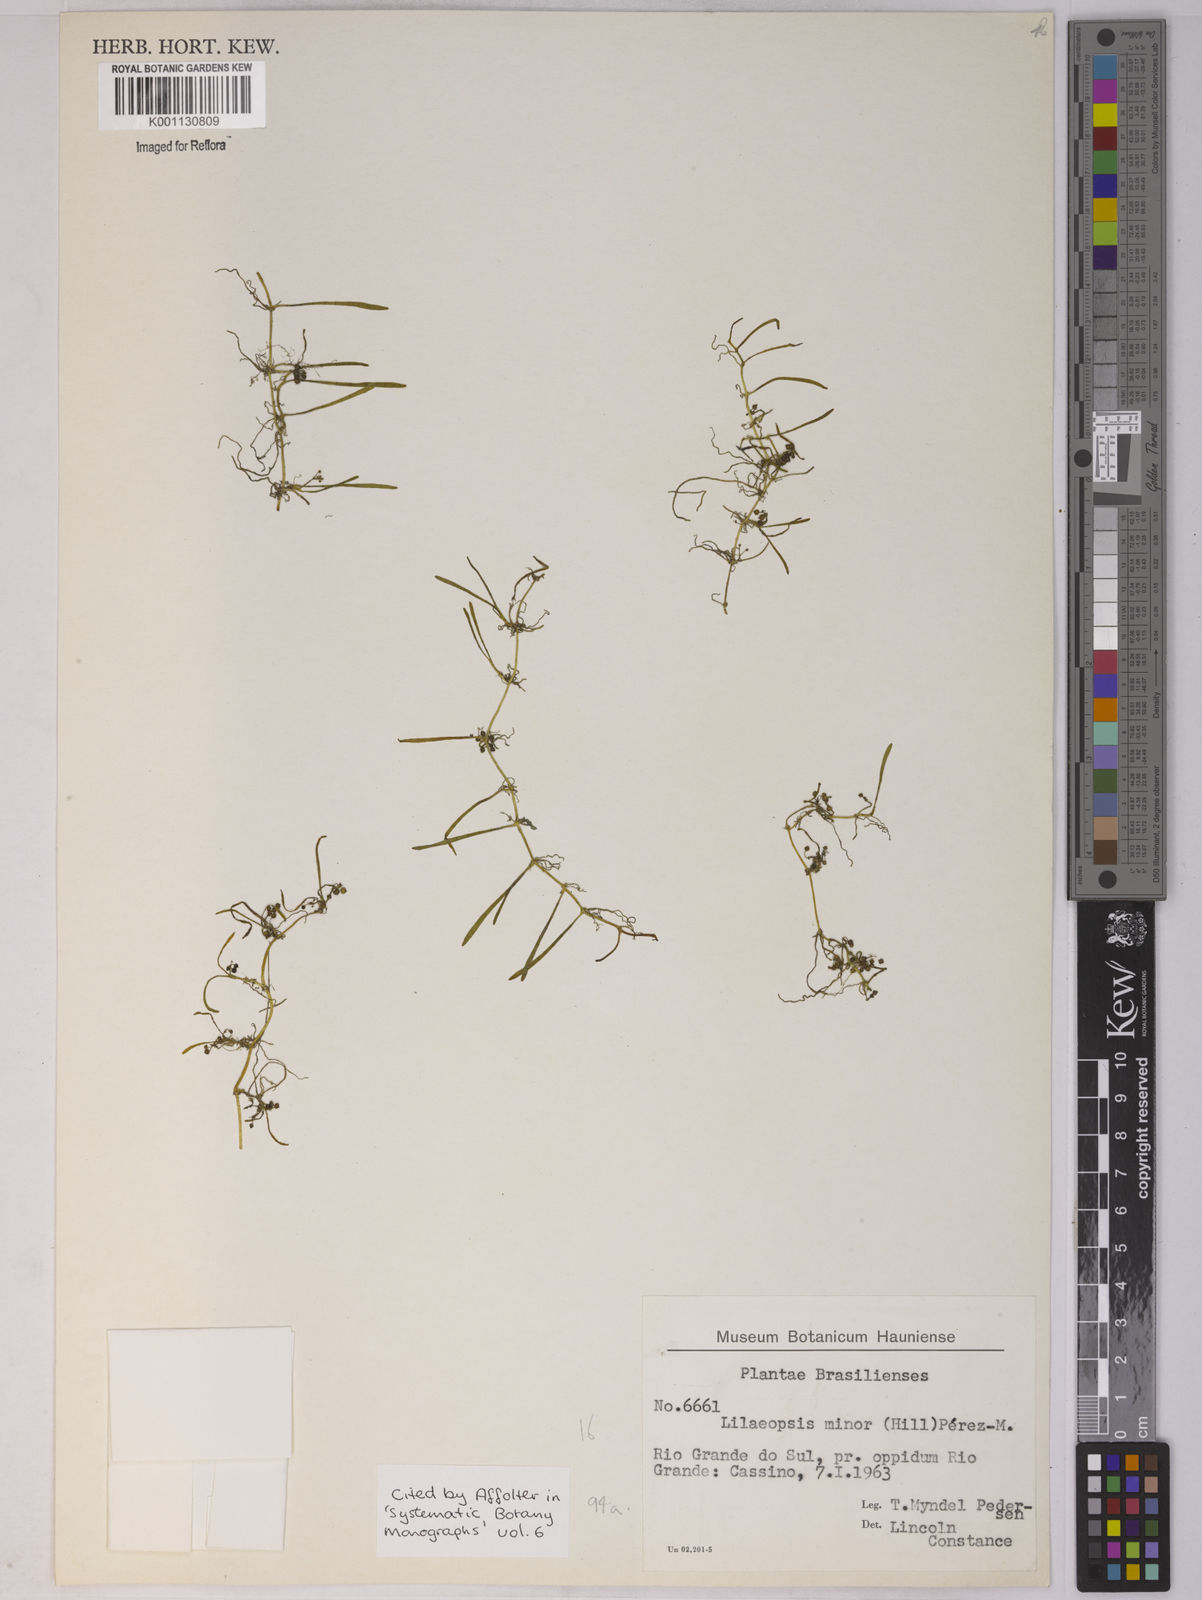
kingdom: Plantae
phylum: Tracheophyta
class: Magnoliopsida
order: Apiales
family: Apiaceae
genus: Lilaeopsis
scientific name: Lilaeopsis minor
